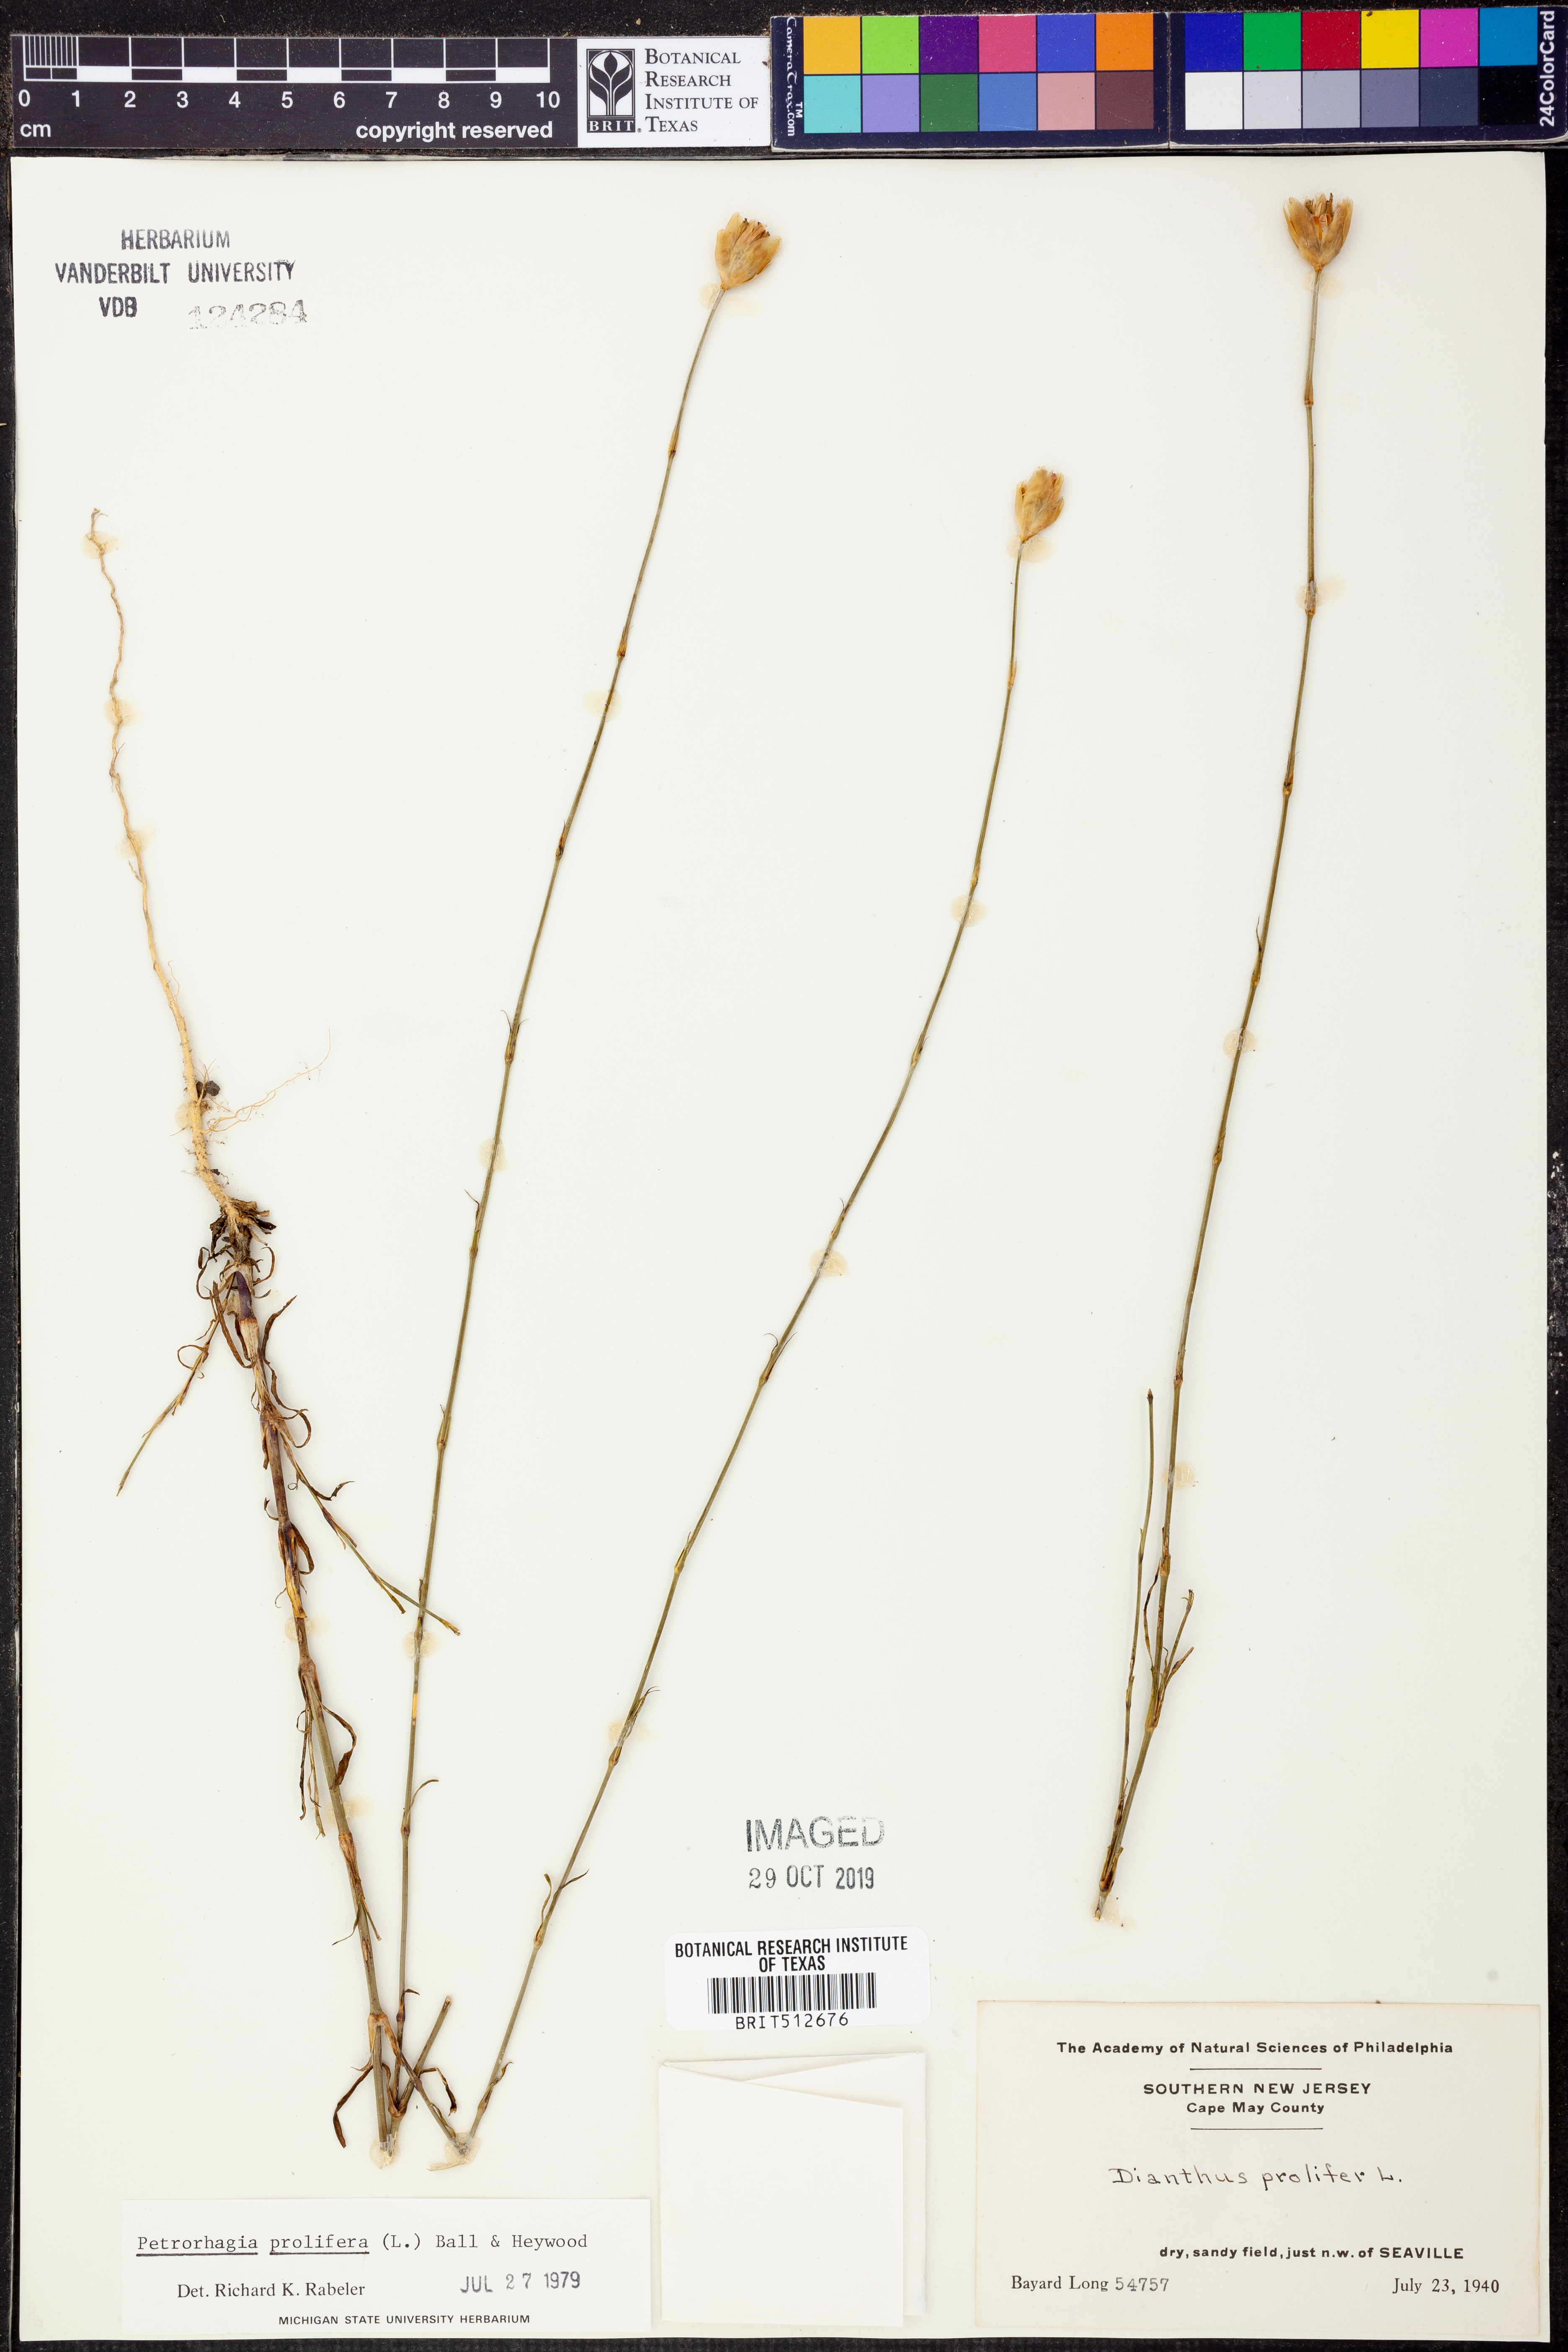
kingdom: Plantae
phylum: Tracheophyta
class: Magnoliopsida
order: Caryophyllales
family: Caryophyllaceae
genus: Petrorhagia
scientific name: Petrorhagia prolifera
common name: Proliferous pink
